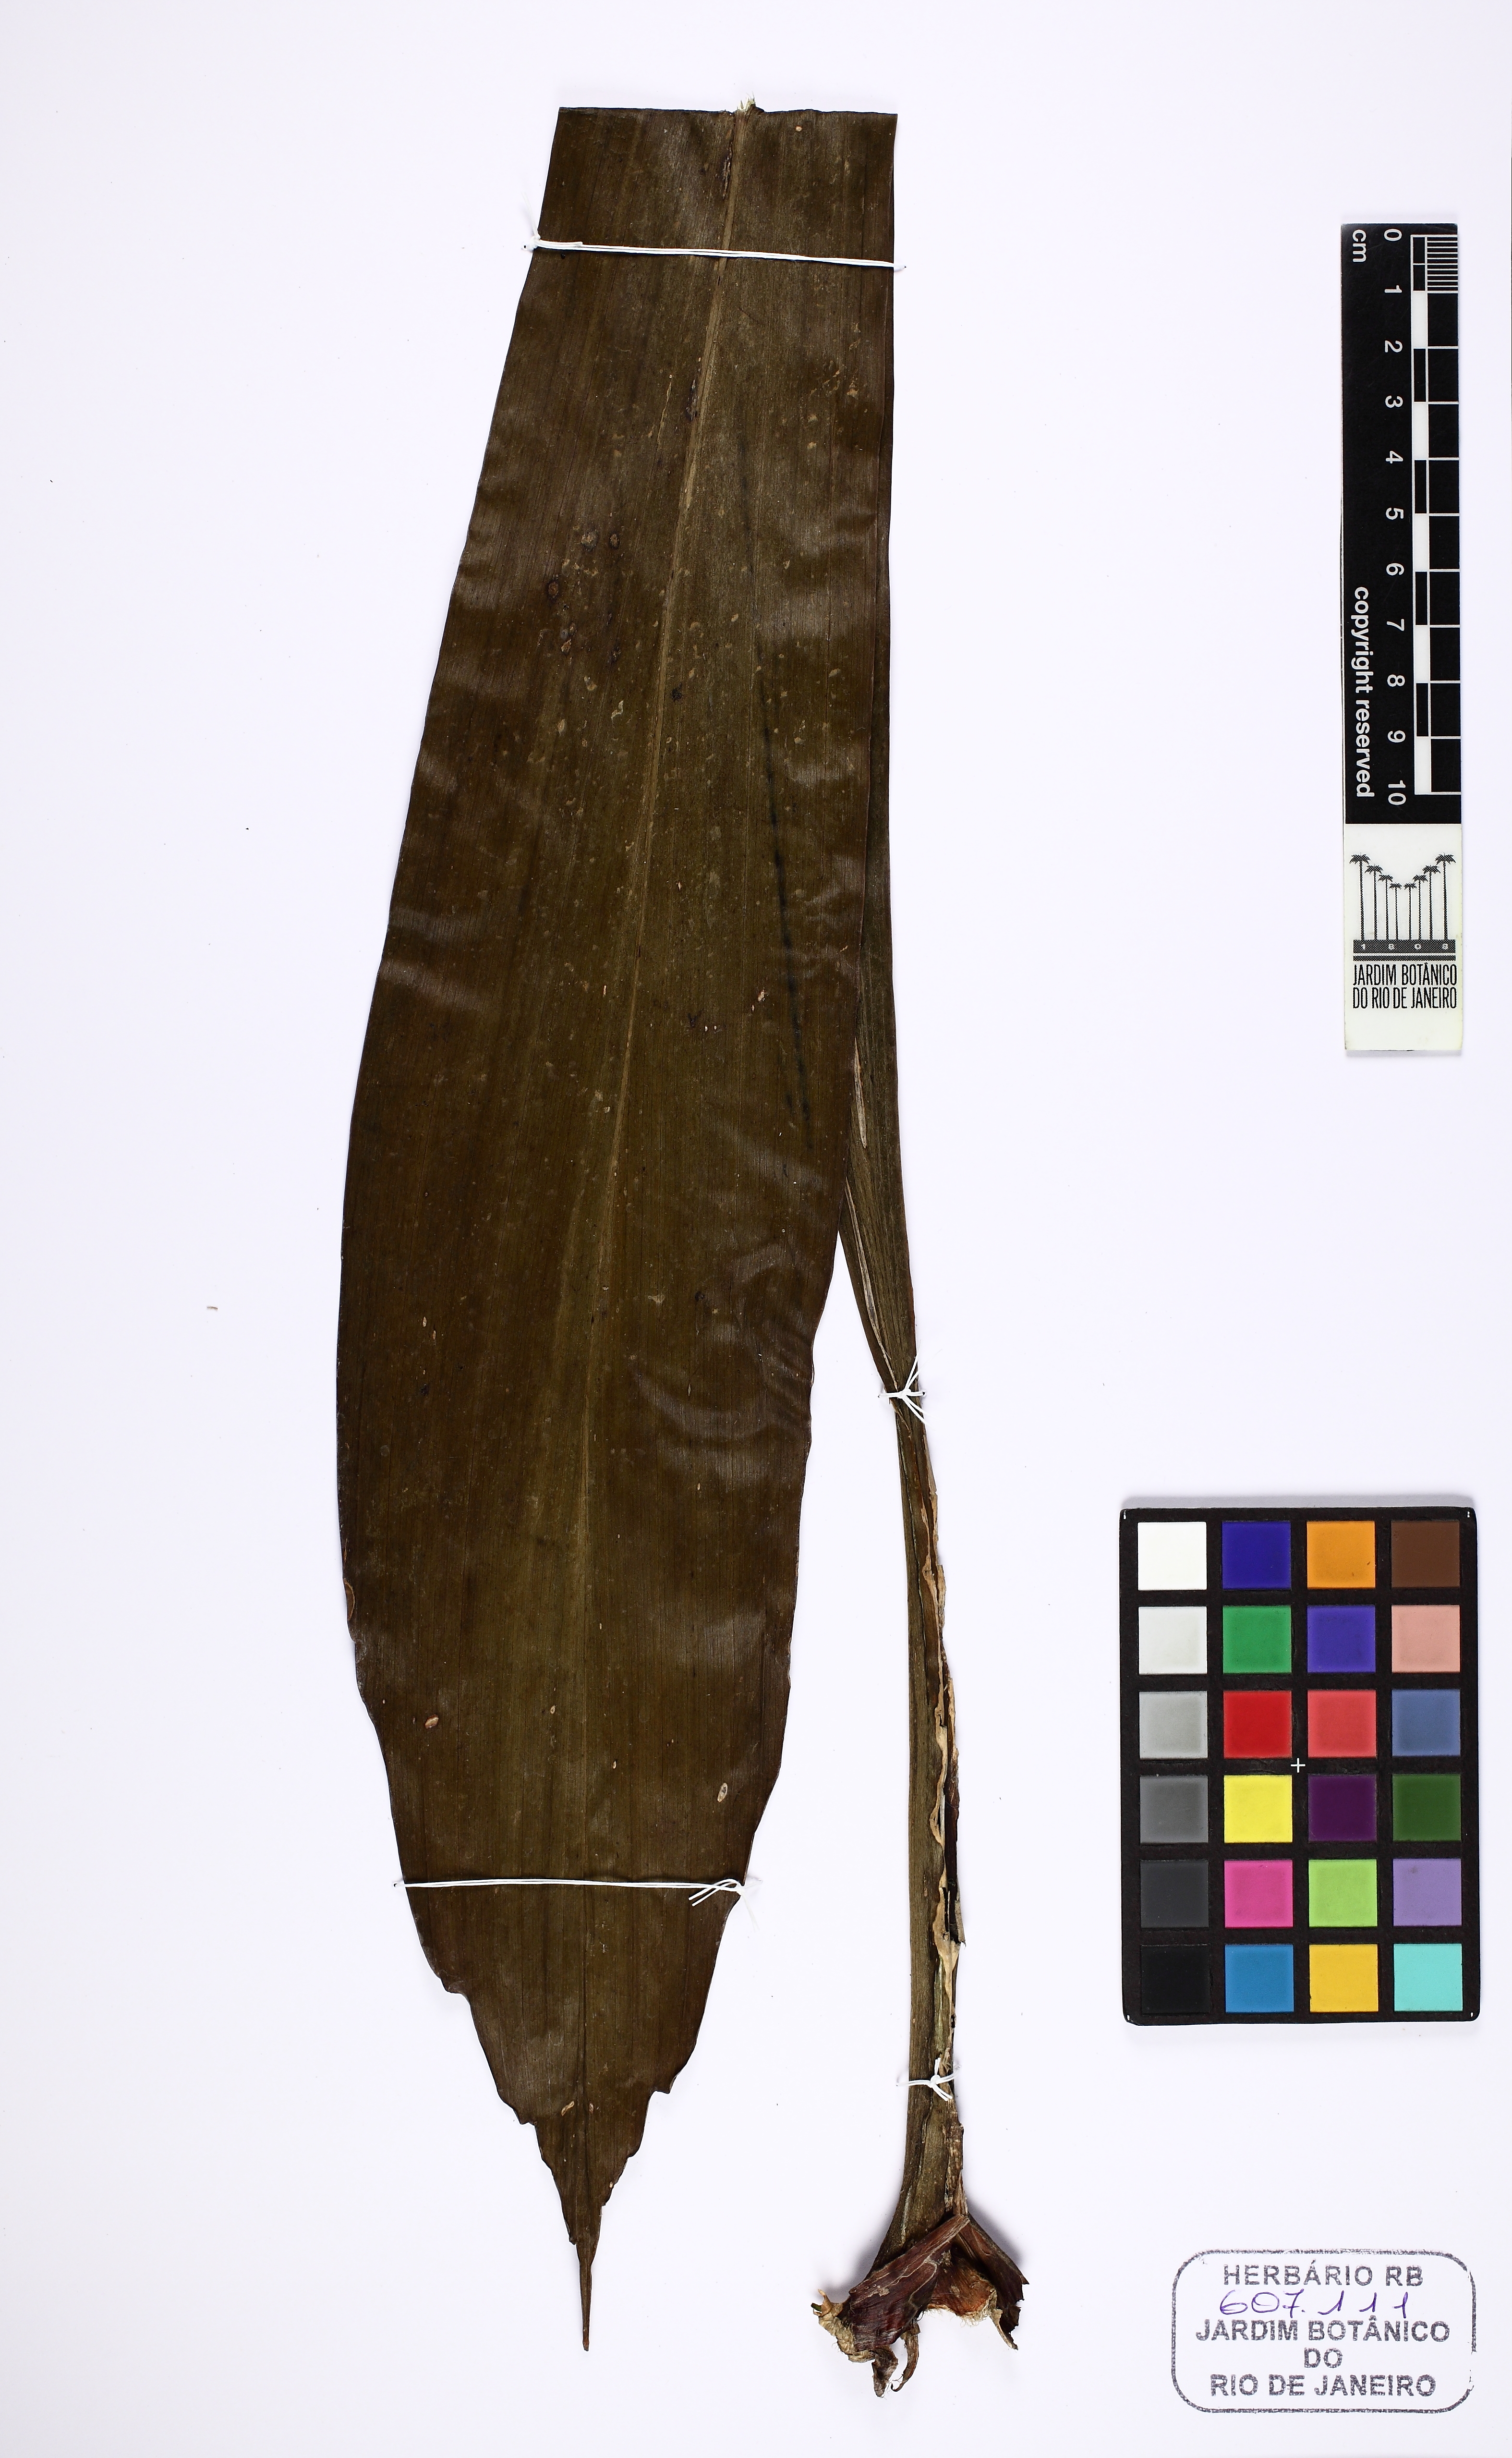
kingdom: Plantae
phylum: Tracheophyta
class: Liliopsida
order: Pandanales
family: Cyclanthaceae
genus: Ludovia
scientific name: Ludovia lancifolia
